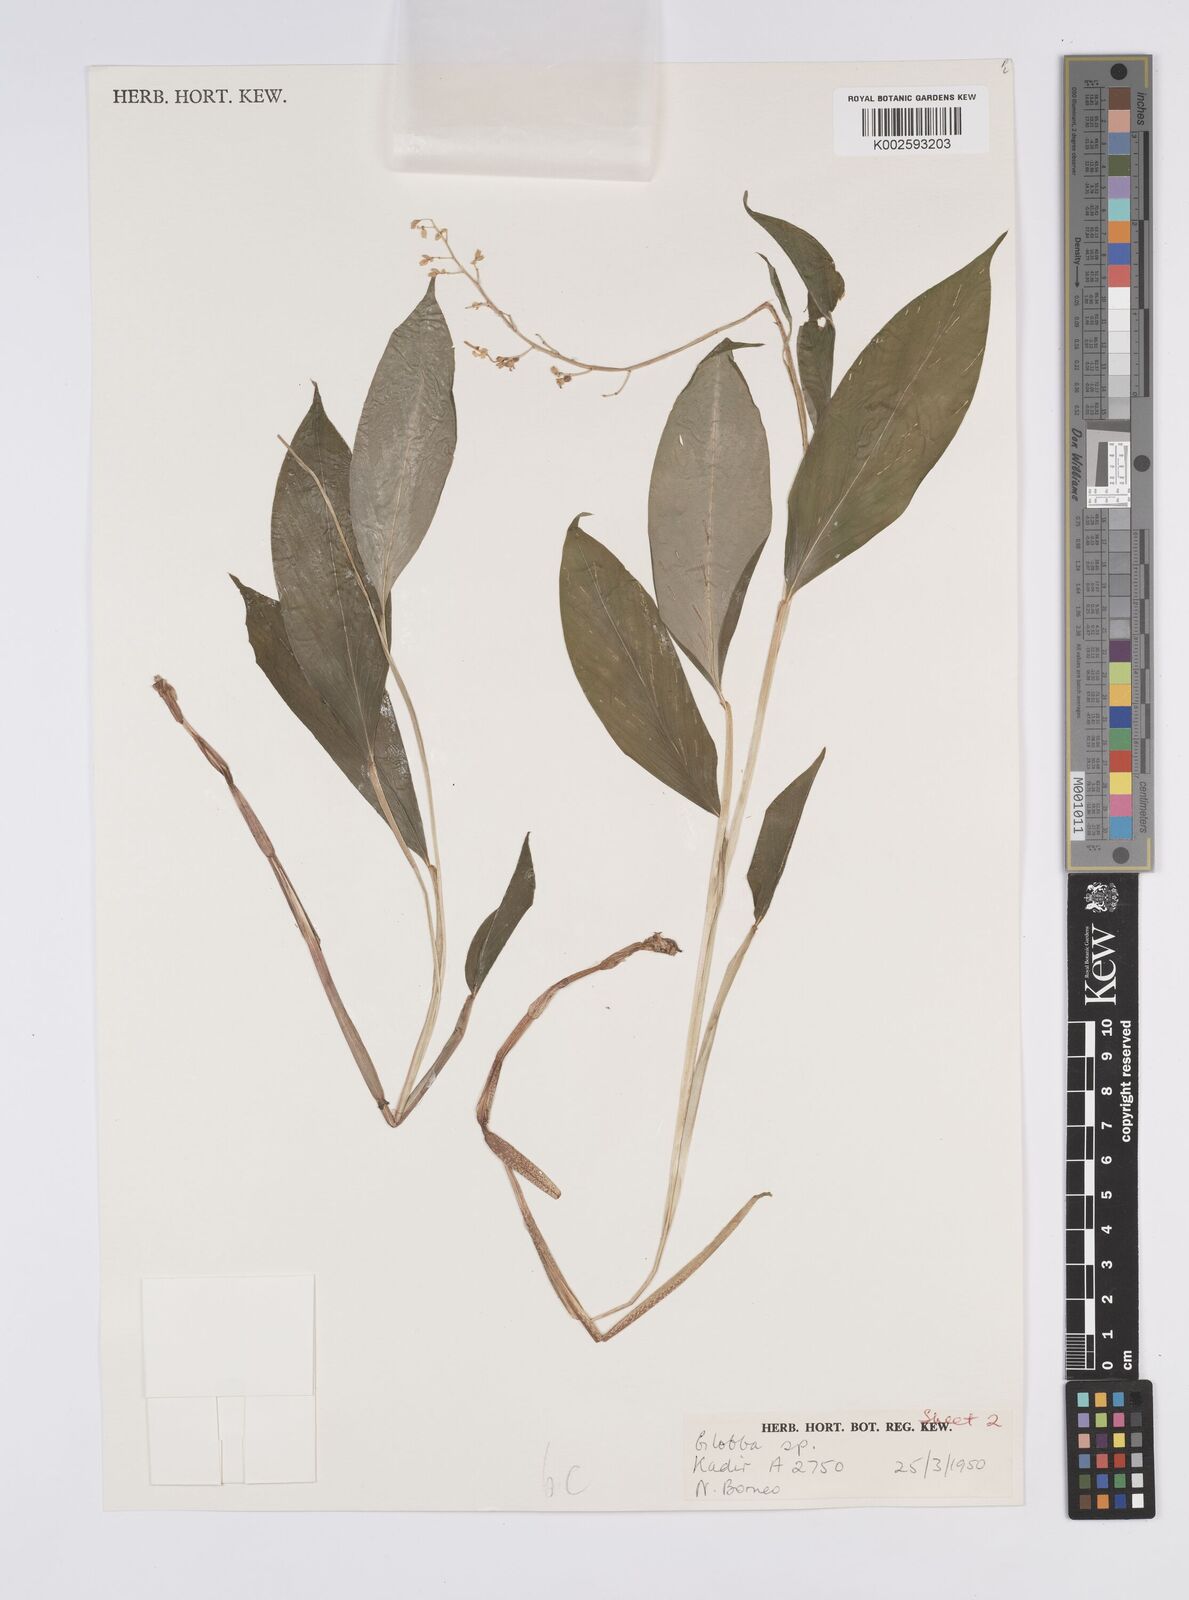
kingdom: Plantae
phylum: Tracheophyta
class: Liliopsida
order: Zingiberales
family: Zingiberaceae
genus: Globba
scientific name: Globba
